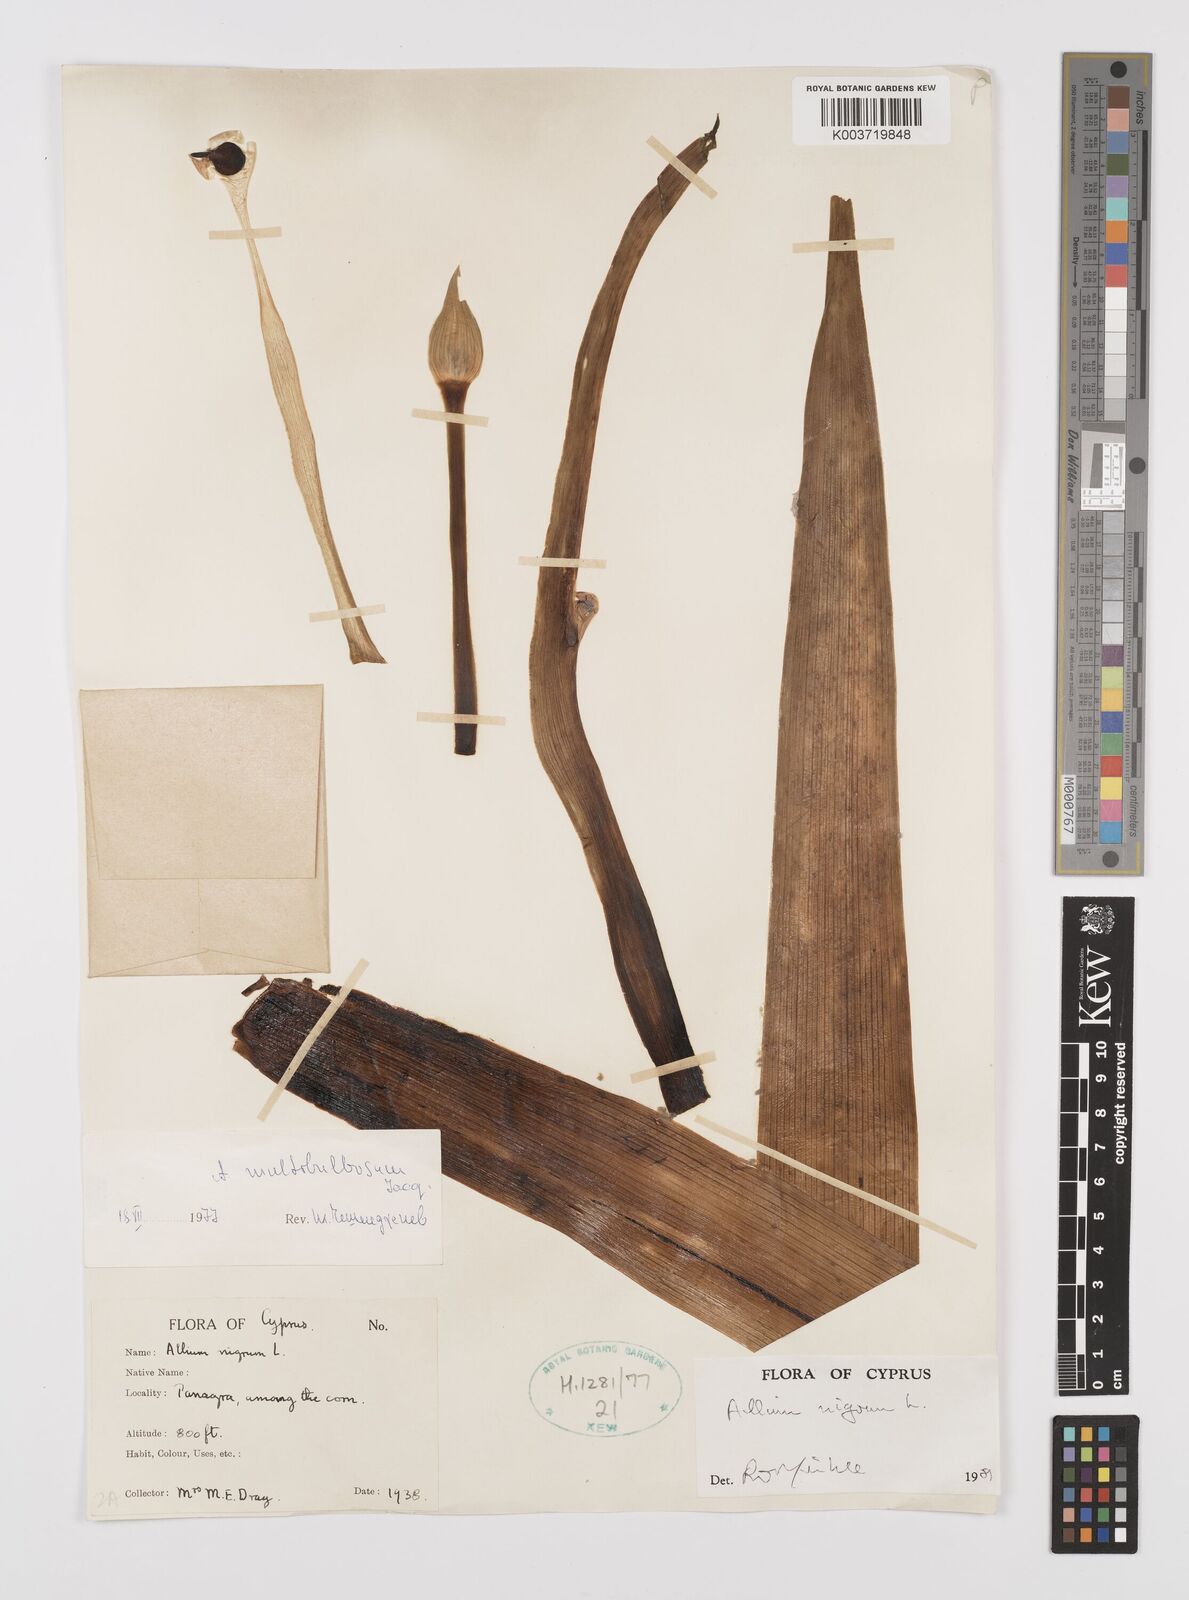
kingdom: Plantae
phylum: Tracheophyta
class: Liliopsida
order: Asparagales
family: Amaryllidaceae
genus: Allium
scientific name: Allium nigrum
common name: Black garlic
